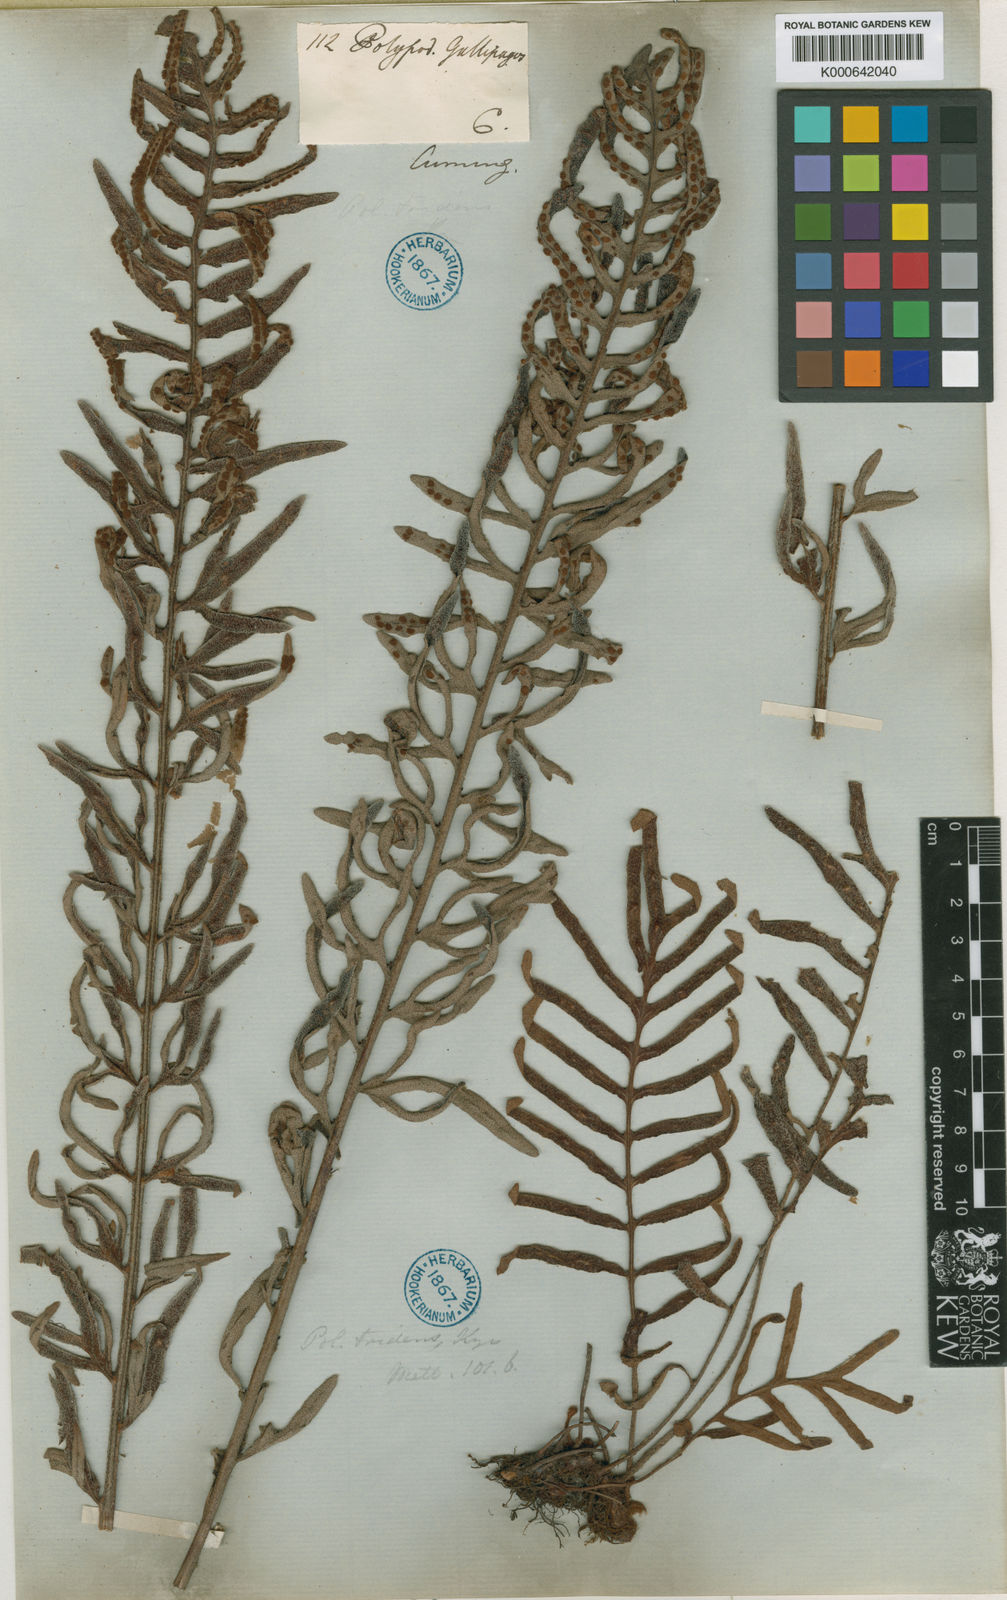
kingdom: Plantae
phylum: Tracheophyta
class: Polypodiopsida
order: Polypodiales
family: Polypodiaceae
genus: Pleopeltis
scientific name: Pleopeltis tridens
